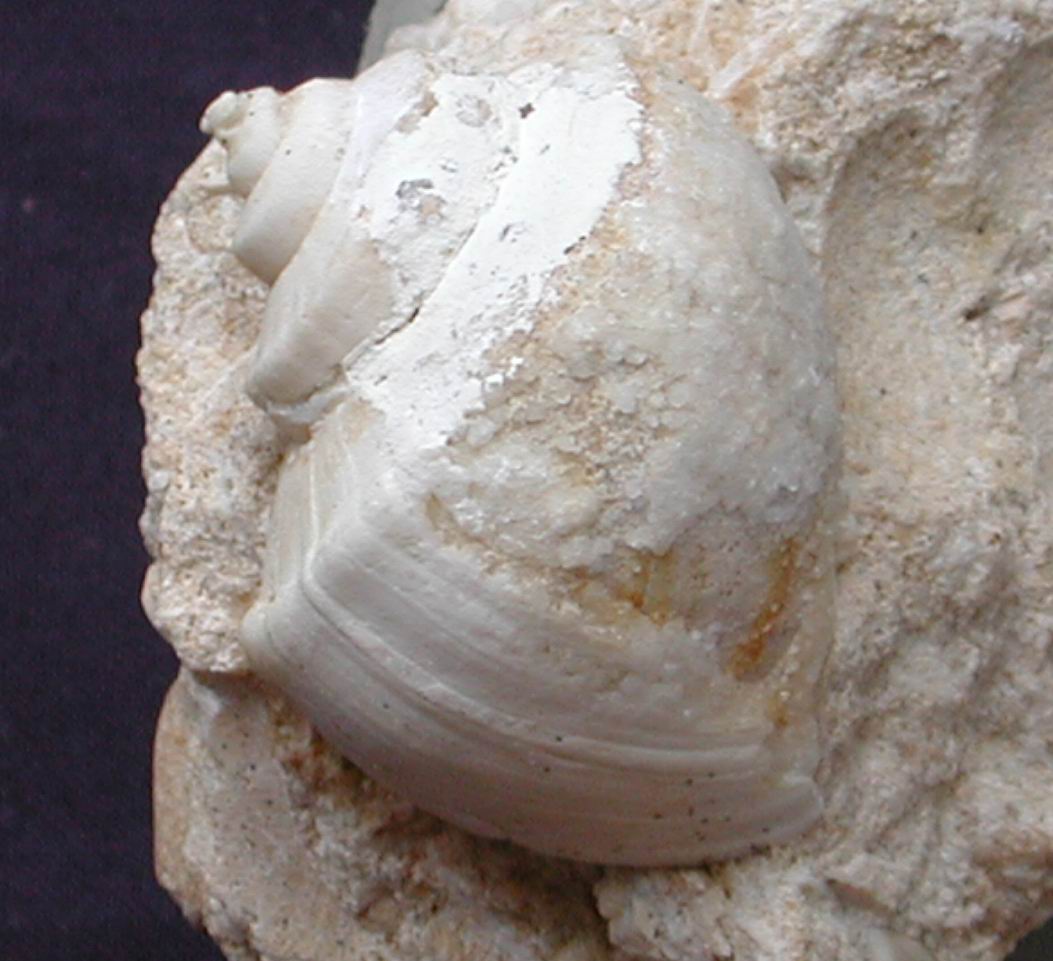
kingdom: Animalia
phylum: Mollusca
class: Gastropoda
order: Architaenioglossa
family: Ampullariidae
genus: Lanistes
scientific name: Lanistes boltenianus
